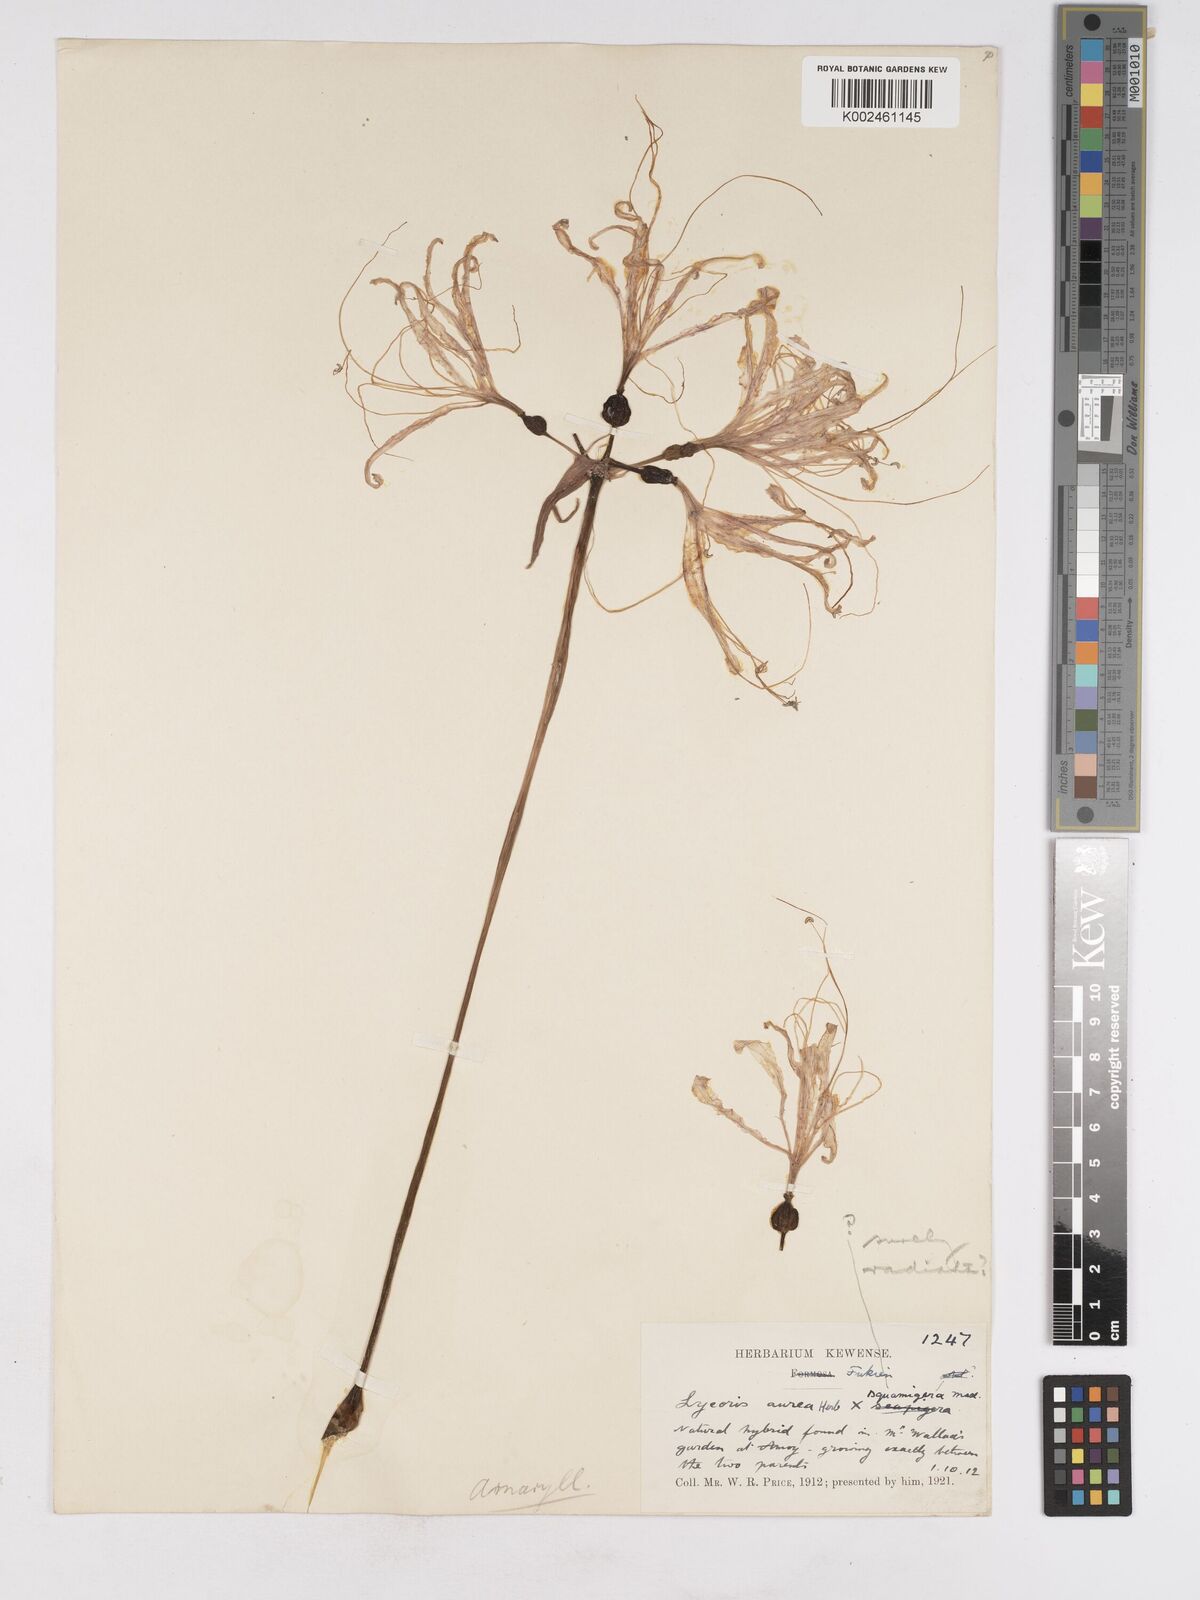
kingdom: Plantae
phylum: Tracheophyta
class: Liliopsida
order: Asparagales
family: Amaryllidaceae
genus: Lycoris
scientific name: Lycoris
